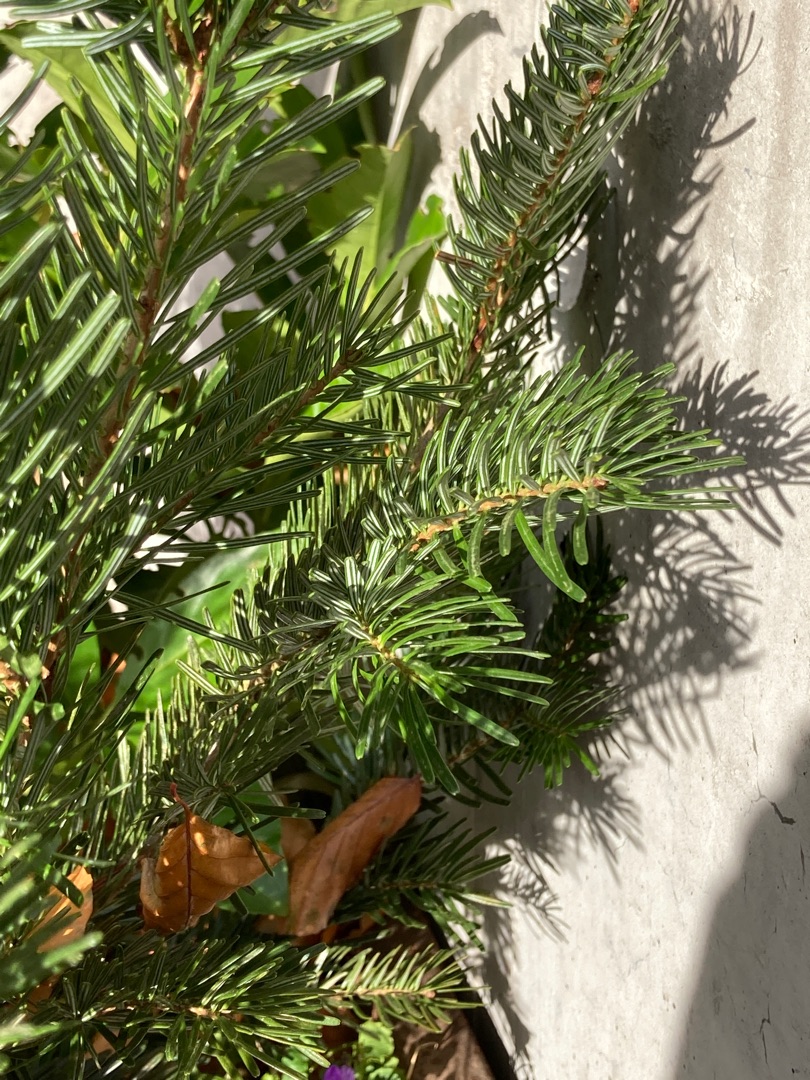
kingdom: Plantae
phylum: Tracheophyta
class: Pinopsida
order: Pinales
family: Pinaceae
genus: Abies
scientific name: Abies nordmanniana
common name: Nordmannsgran
